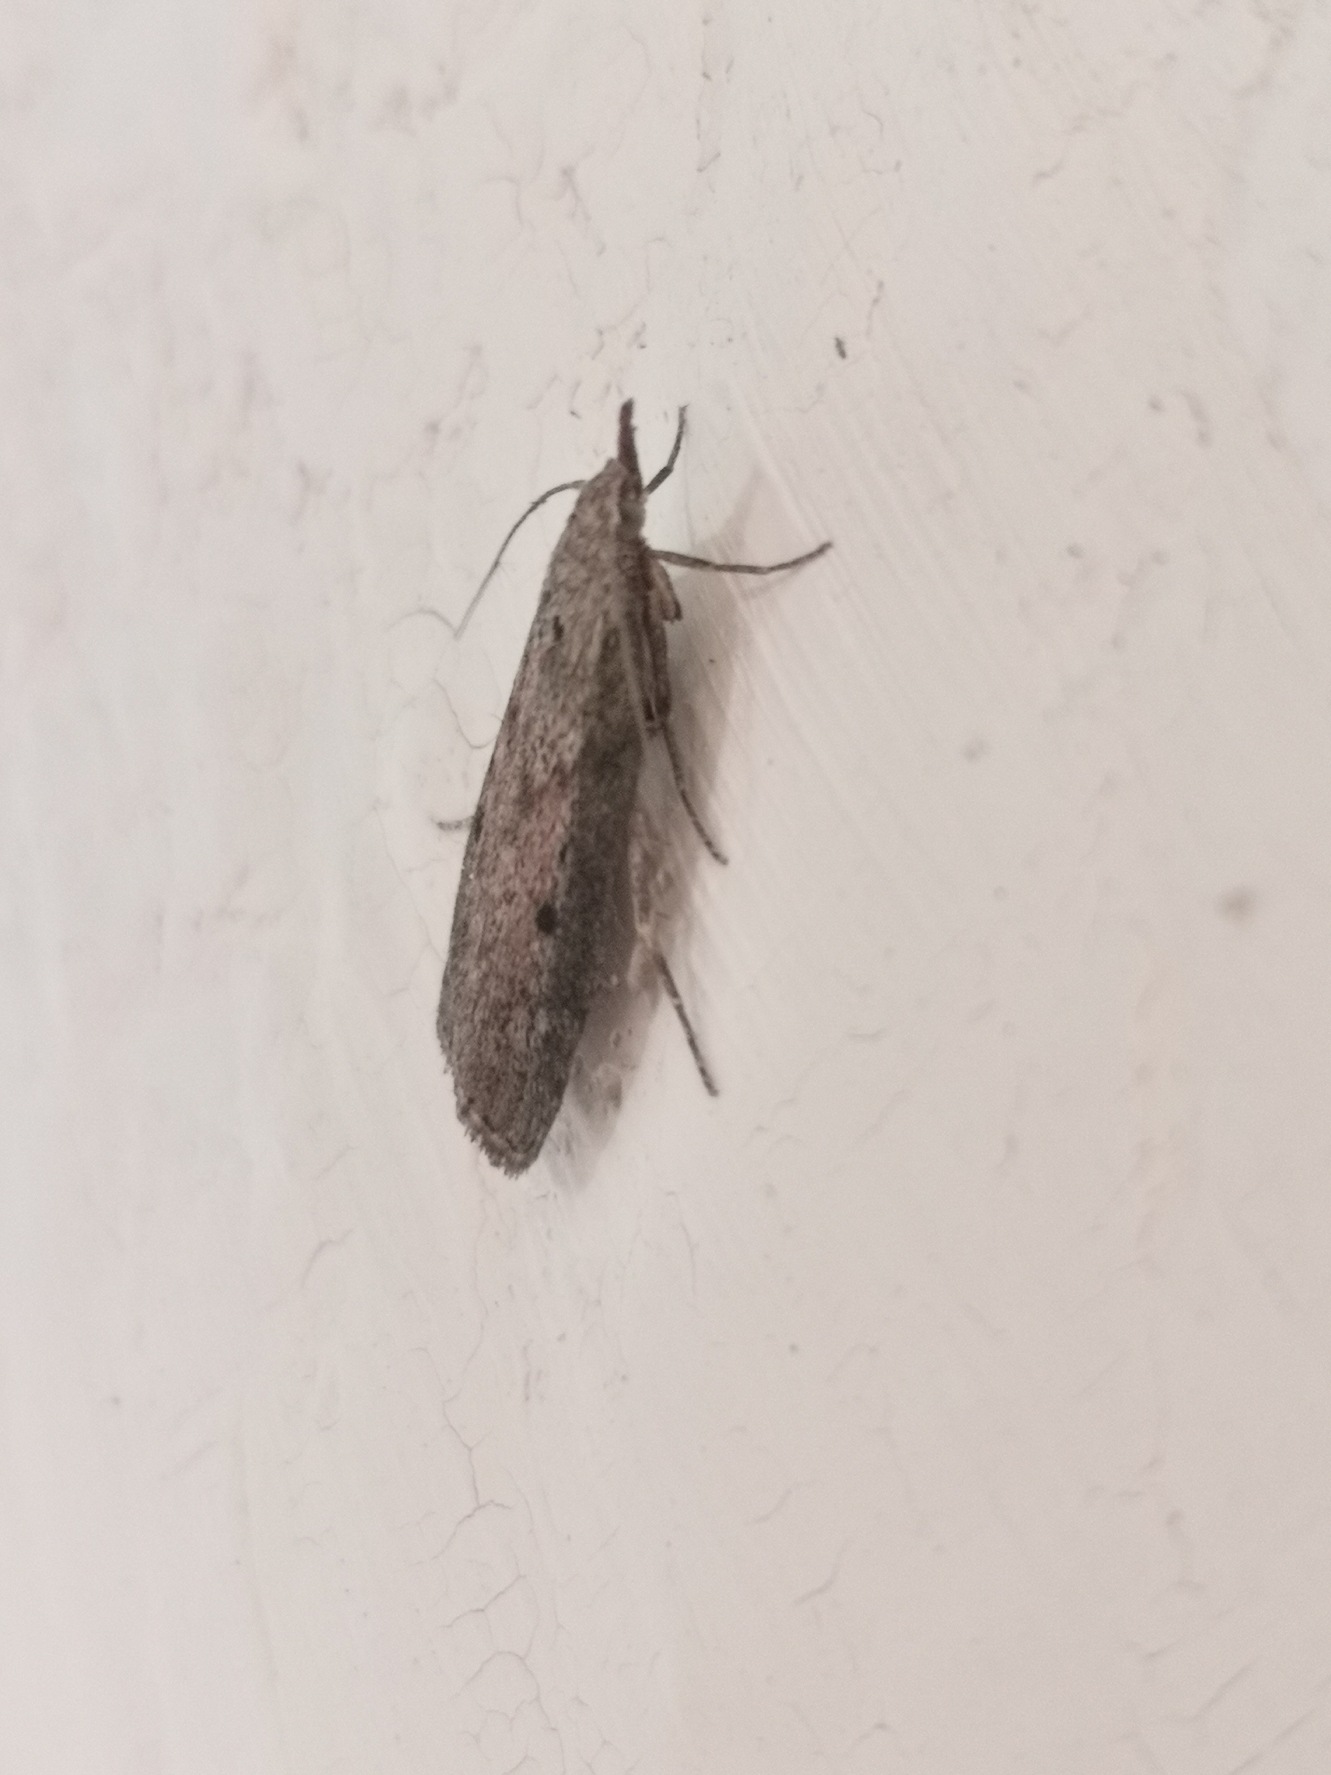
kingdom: Animalia
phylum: Arthropoda
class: Insecta
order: Lepidoptera
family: Pyralidae
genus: Aphomia
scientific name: Aphomia sociella
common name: Humlevoksmøl
